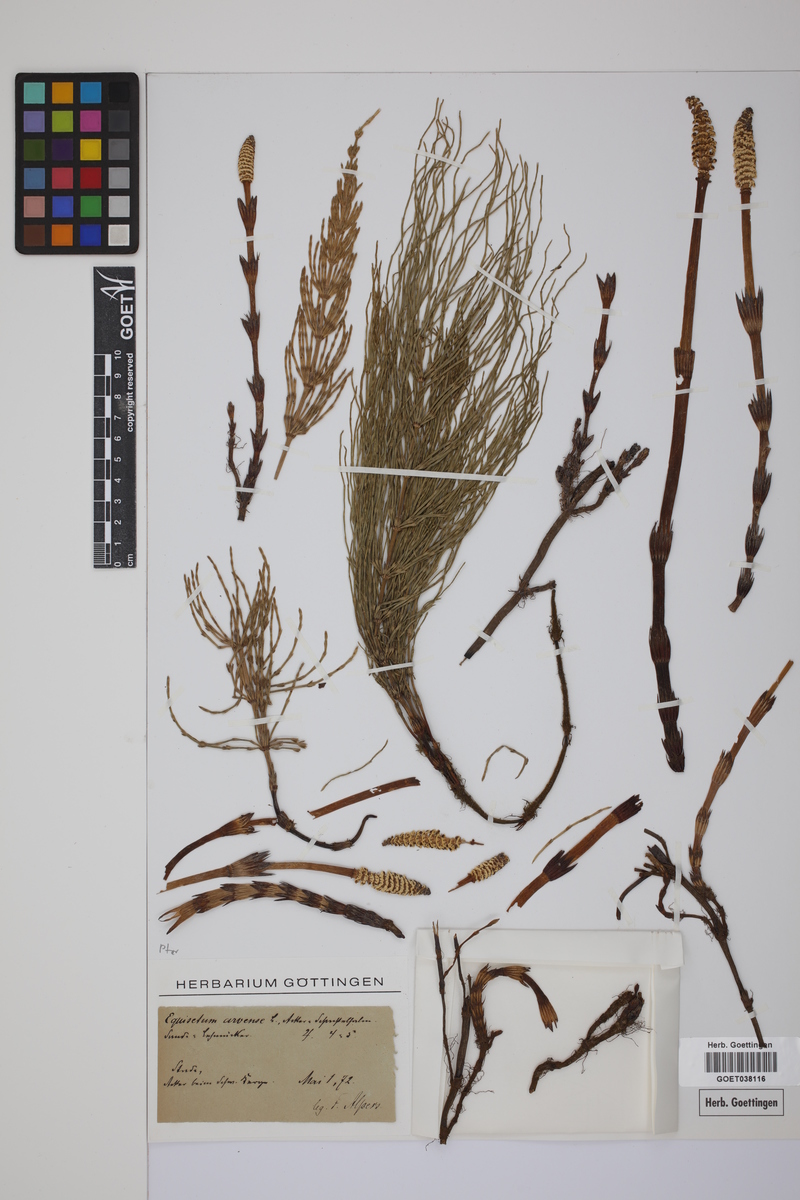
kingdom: Plantae
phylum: Tracheophyta
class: Polypodiopsida
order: Equisetales
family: Equisetaceae
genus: Equisetum
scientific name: Equisetum arvense
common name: Field horsetail
